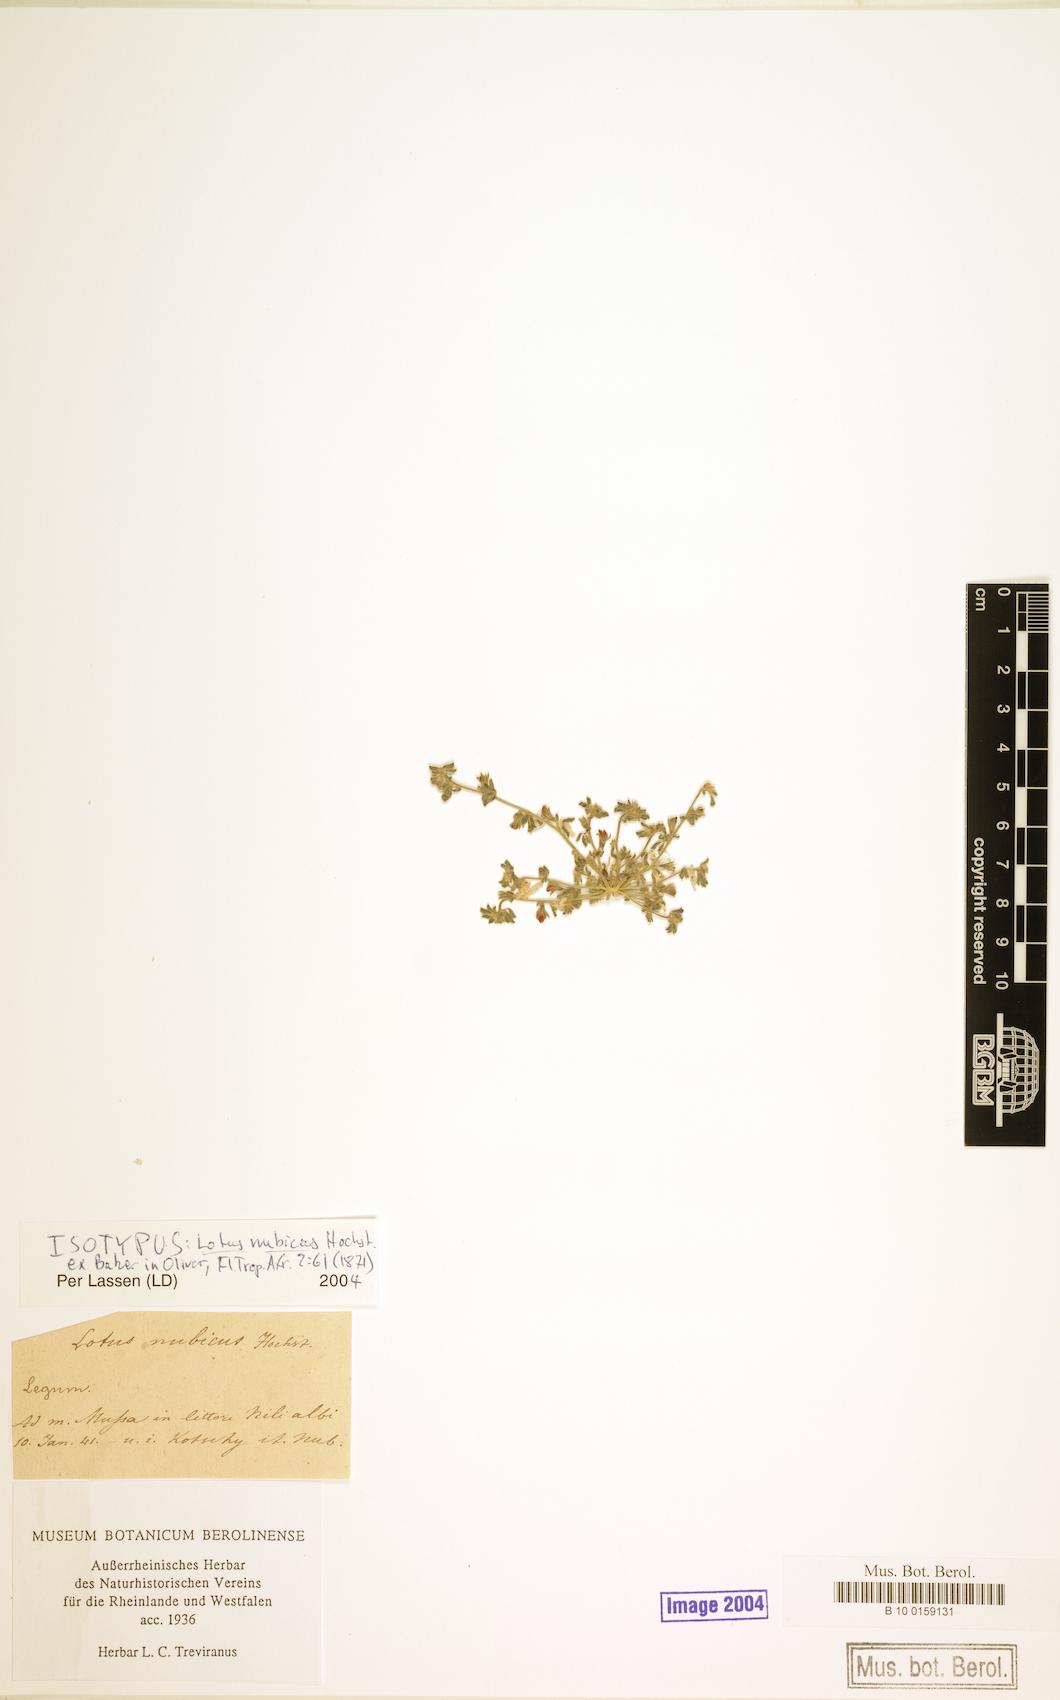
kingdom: Plantae
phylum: Tracheophyta
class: Magnoliopsida
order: Fabales
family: Fabaceae
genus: Lotus
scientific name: Lotus nubicus
